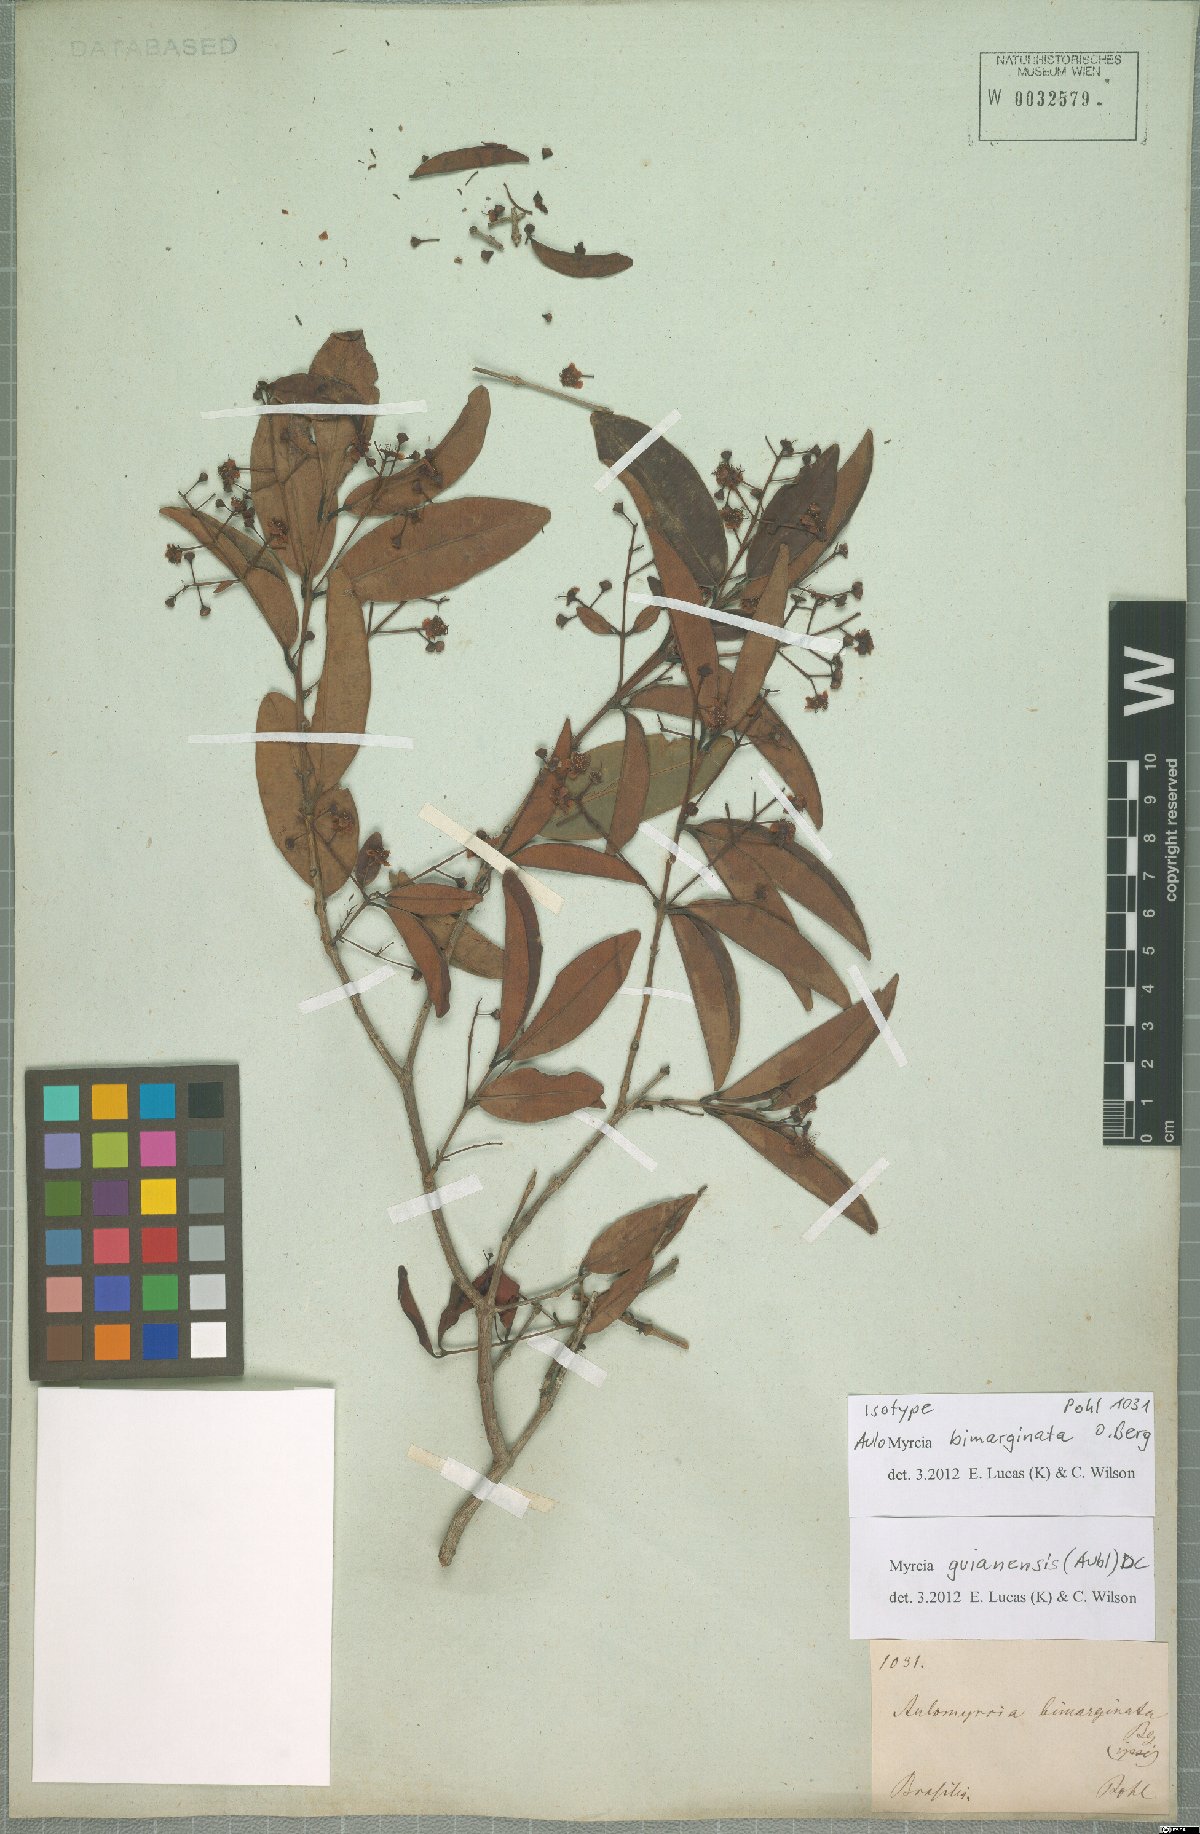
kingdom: Plantae
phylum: Tracheophyta
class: Magnoliopsida
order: Myrtales
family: Myrtaceae
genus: Myrcia
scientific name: Myrcia guianensis
